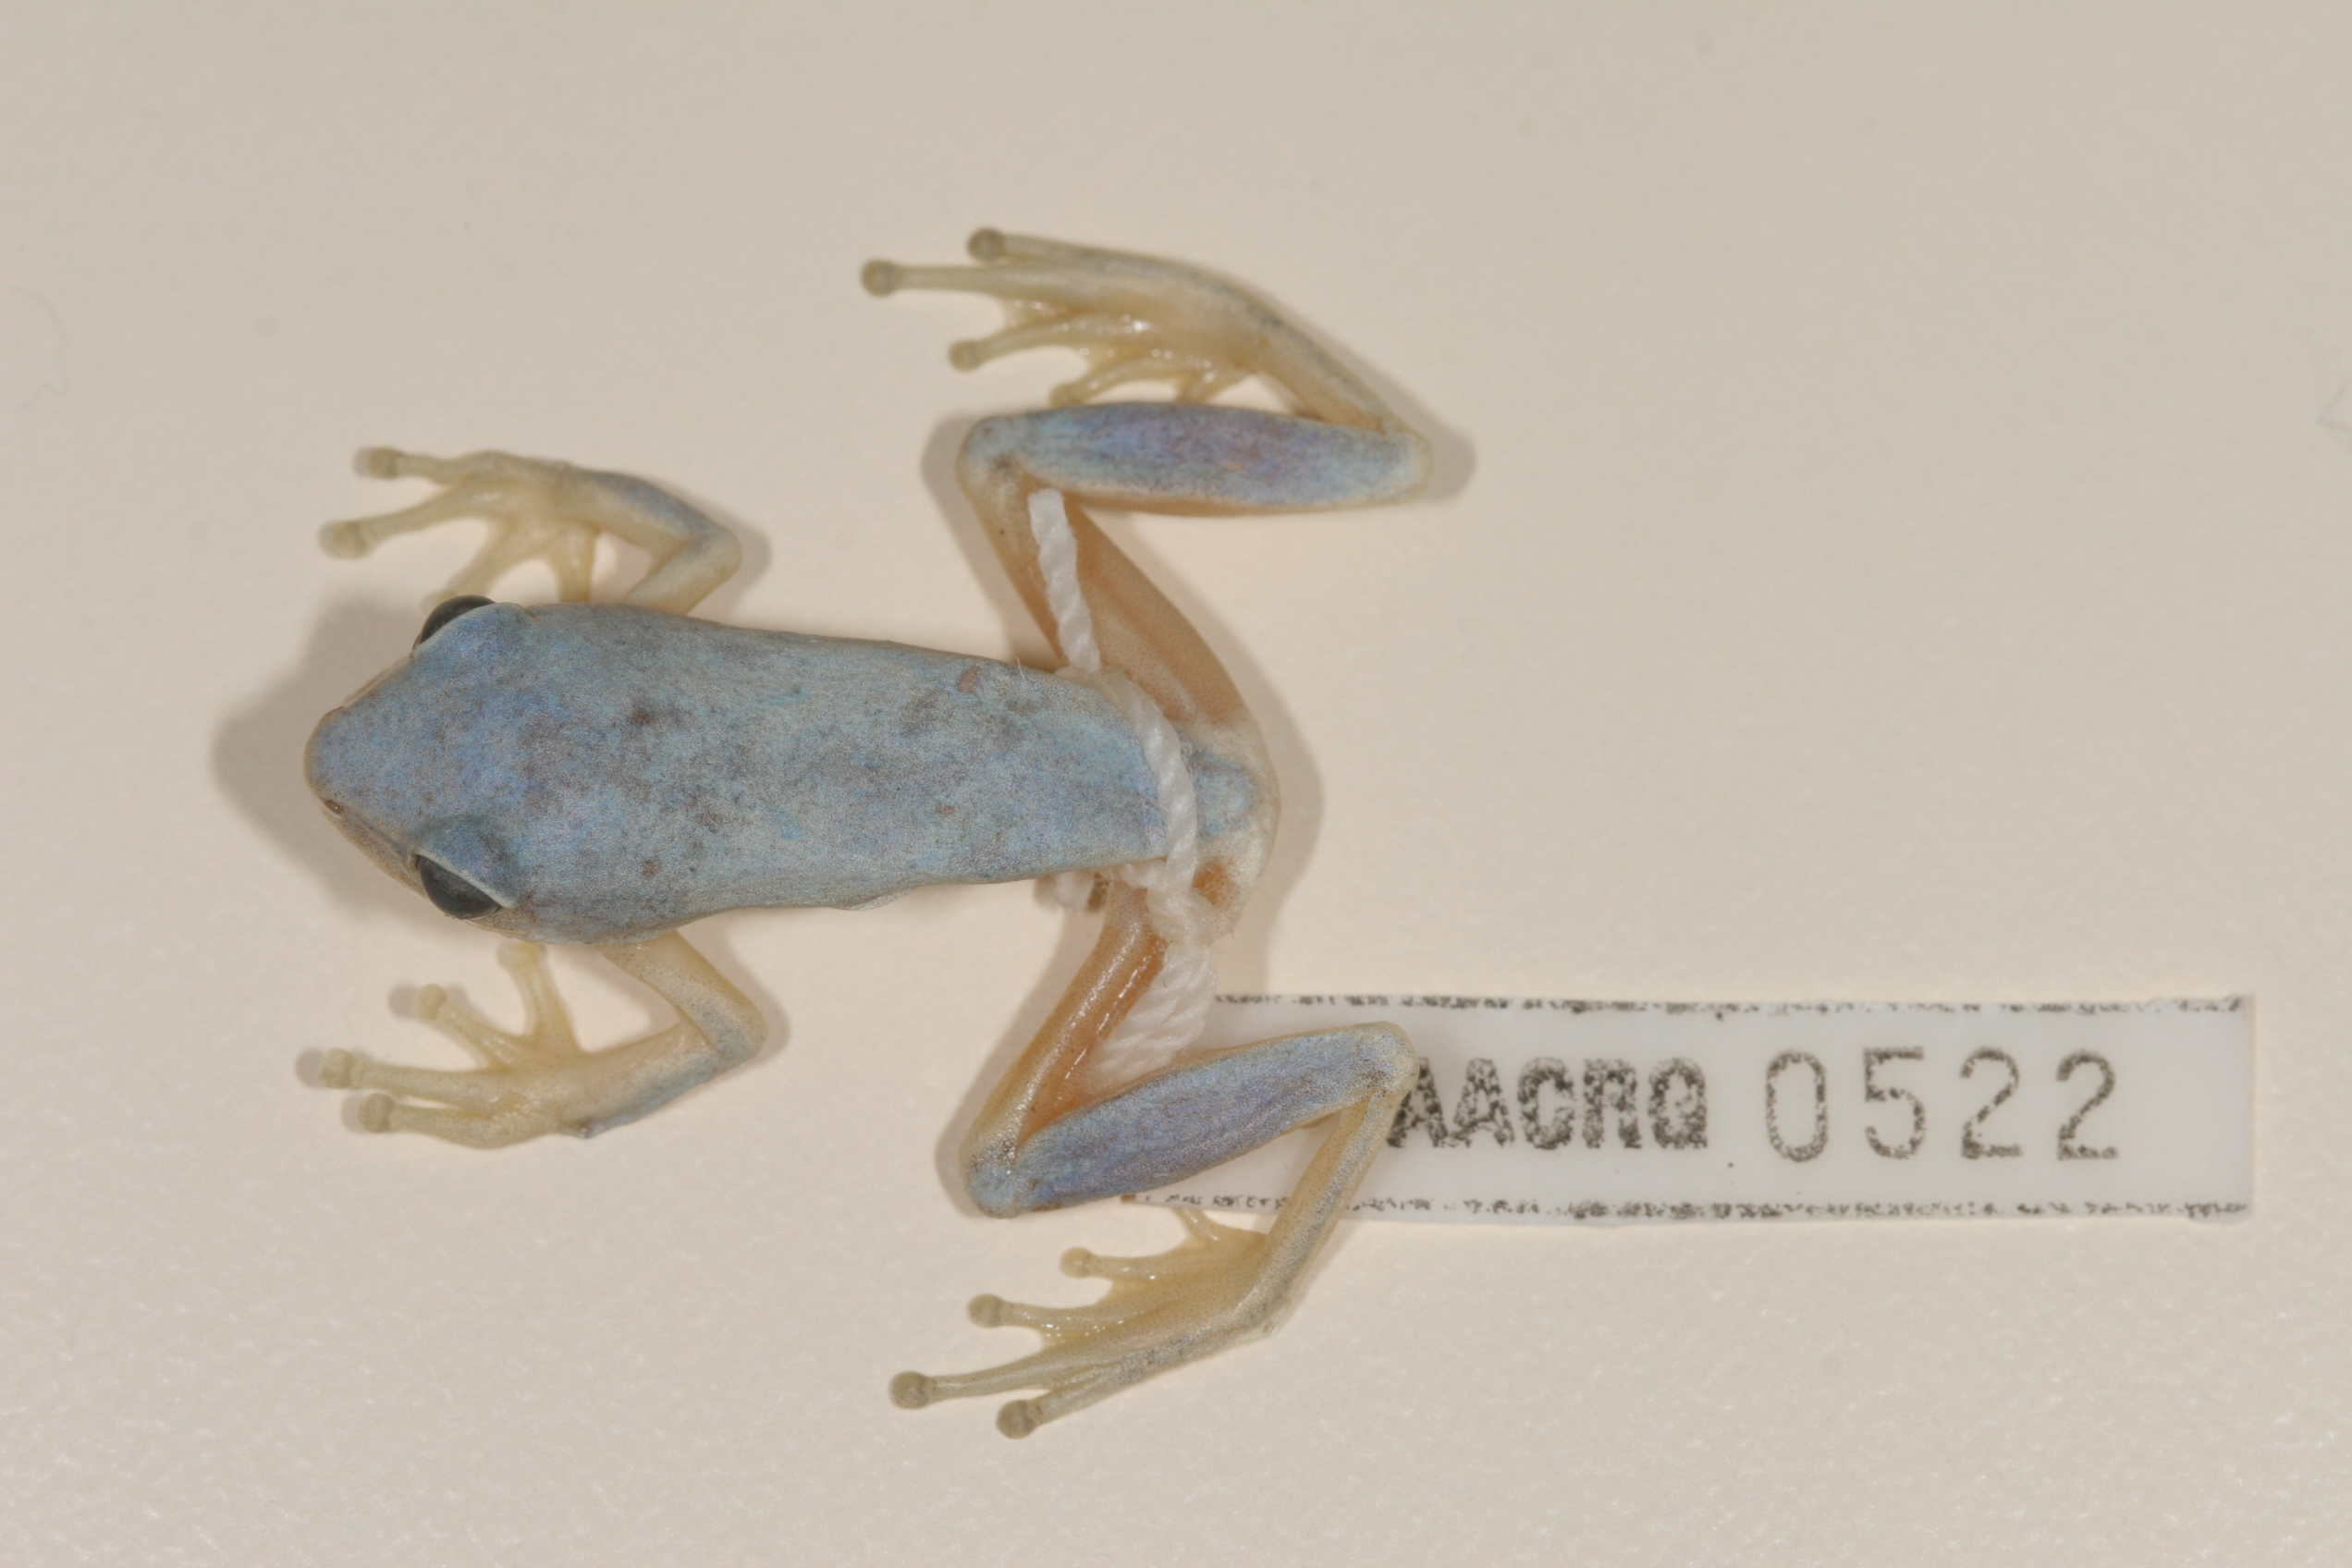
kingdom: Animalia
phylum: Chordata
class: Amphibia
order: Anura
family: Hyperoliidae
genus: Hyperolius
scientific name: Hyperolius tuberilinguis
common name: Tinker reed frog
